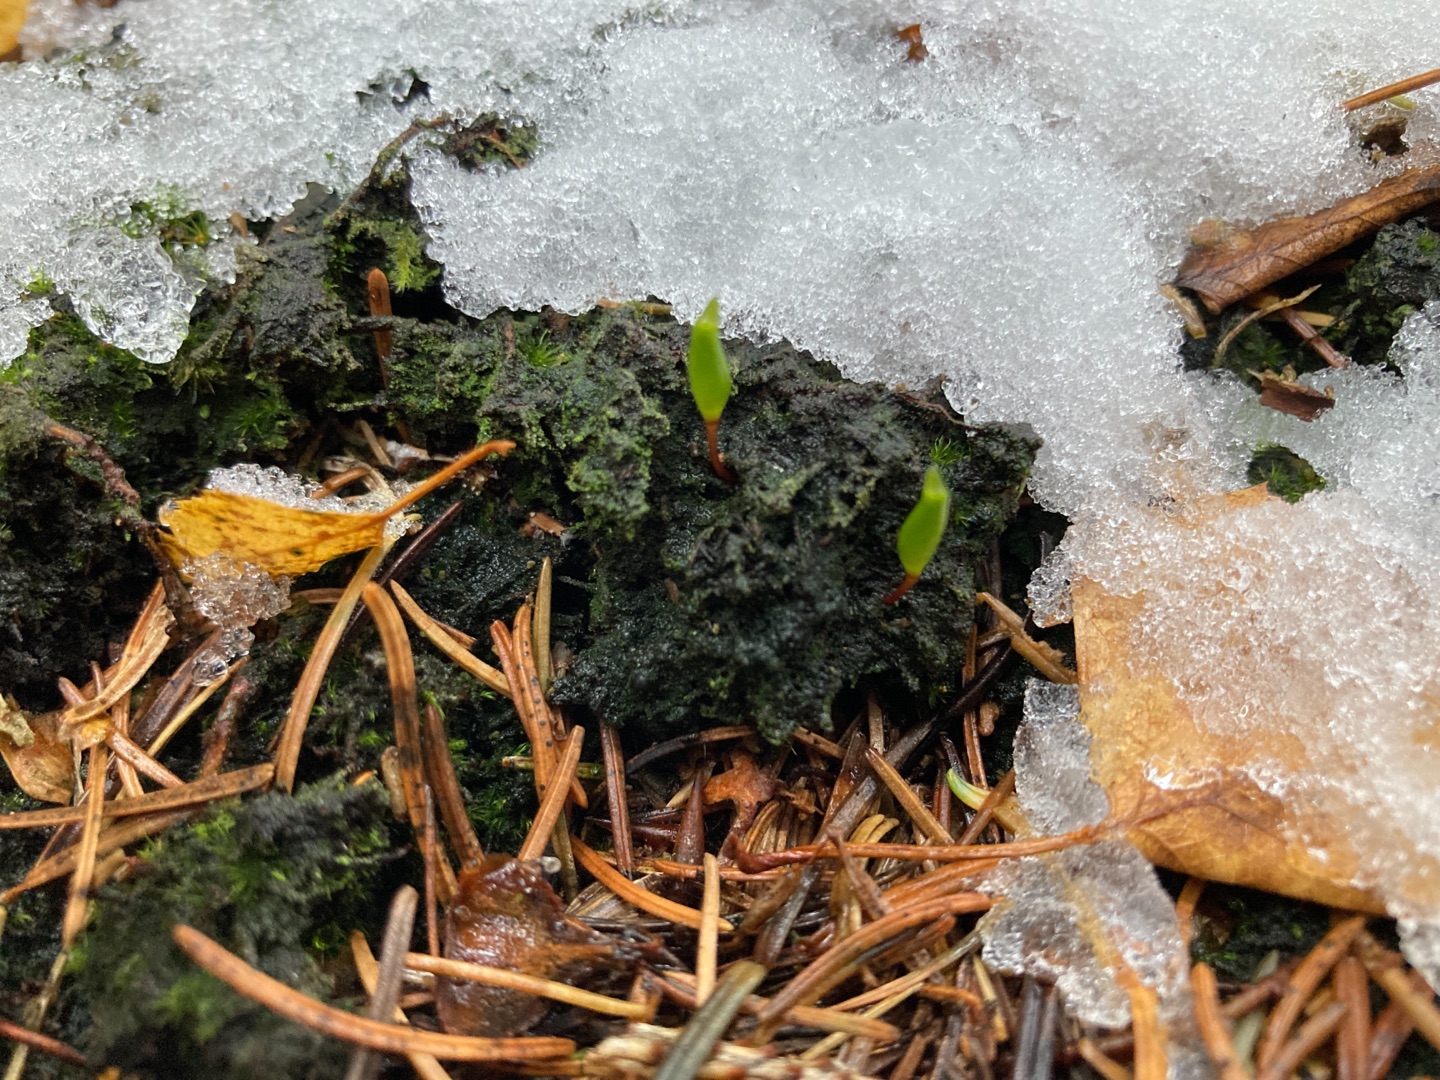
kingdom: Plantae
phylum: Bryophyta
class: Bryopsida
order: Buxbaumiales
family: Buxbaumiaceae
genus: Buxbaumia
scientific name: Buxbaumia viridis
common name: Grøn buxbaumia
